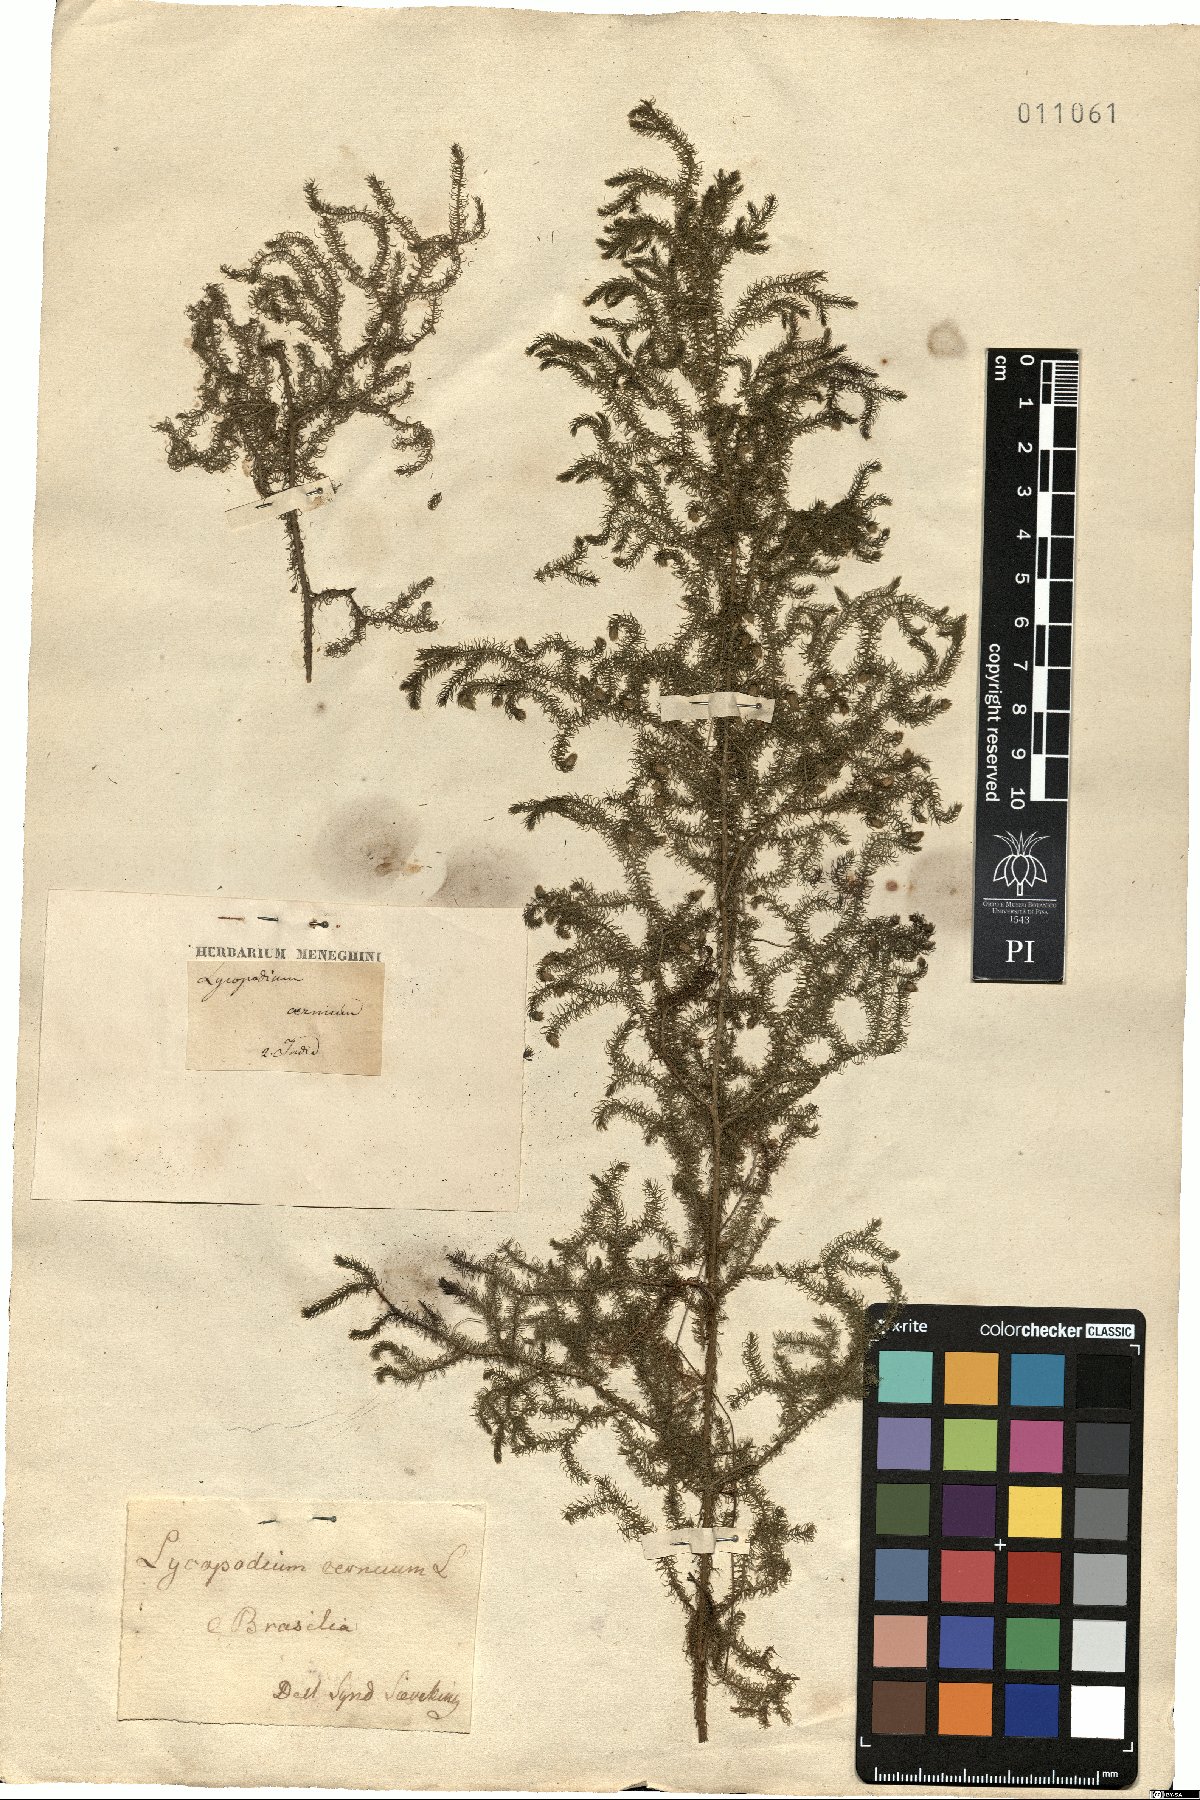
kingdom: Plantae
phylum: Tracheophyta
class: Lycopodiopsida
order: Lycopodiales
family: Lycopodiaceae
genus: Palhinhaea
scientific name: Palhinhaea cernua
